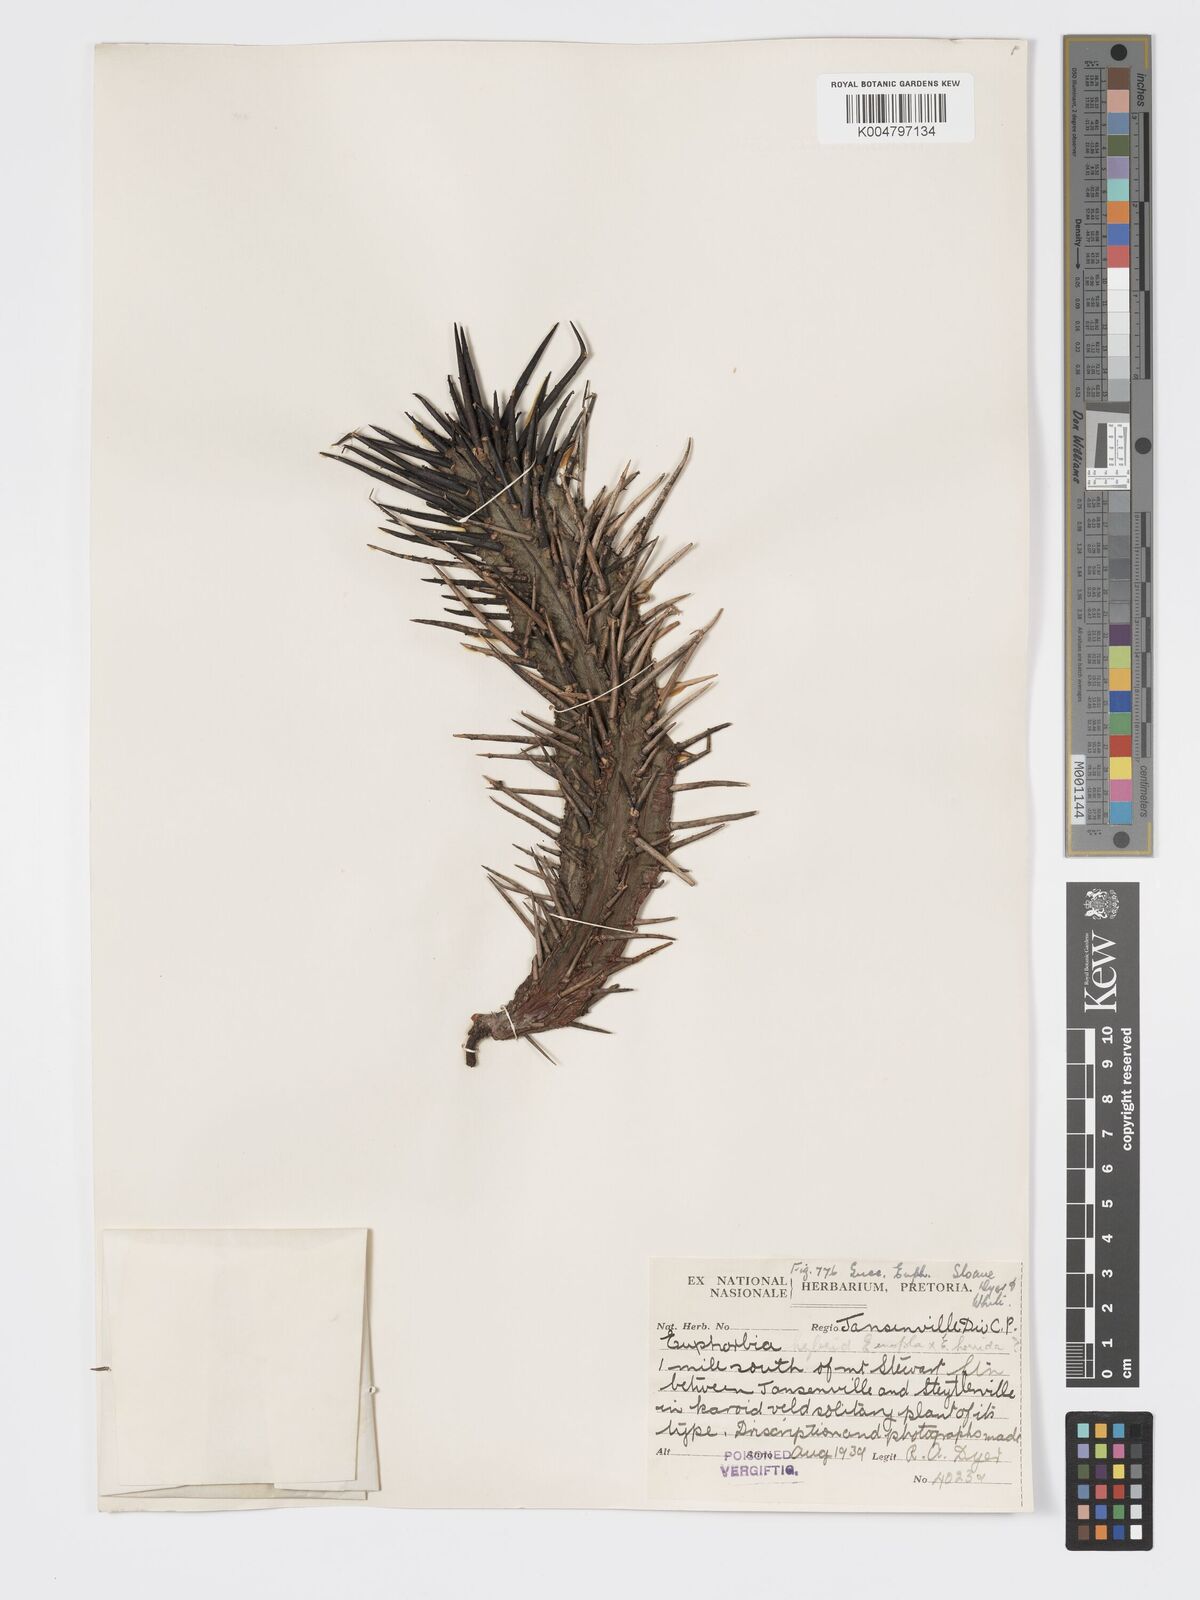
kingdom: Plantae
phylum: Tracheophyta
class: Magnoliopsida
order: Malpighiales
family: Euphorbiaceae
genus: Euphorbia
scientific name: Euphorbia heptagona
